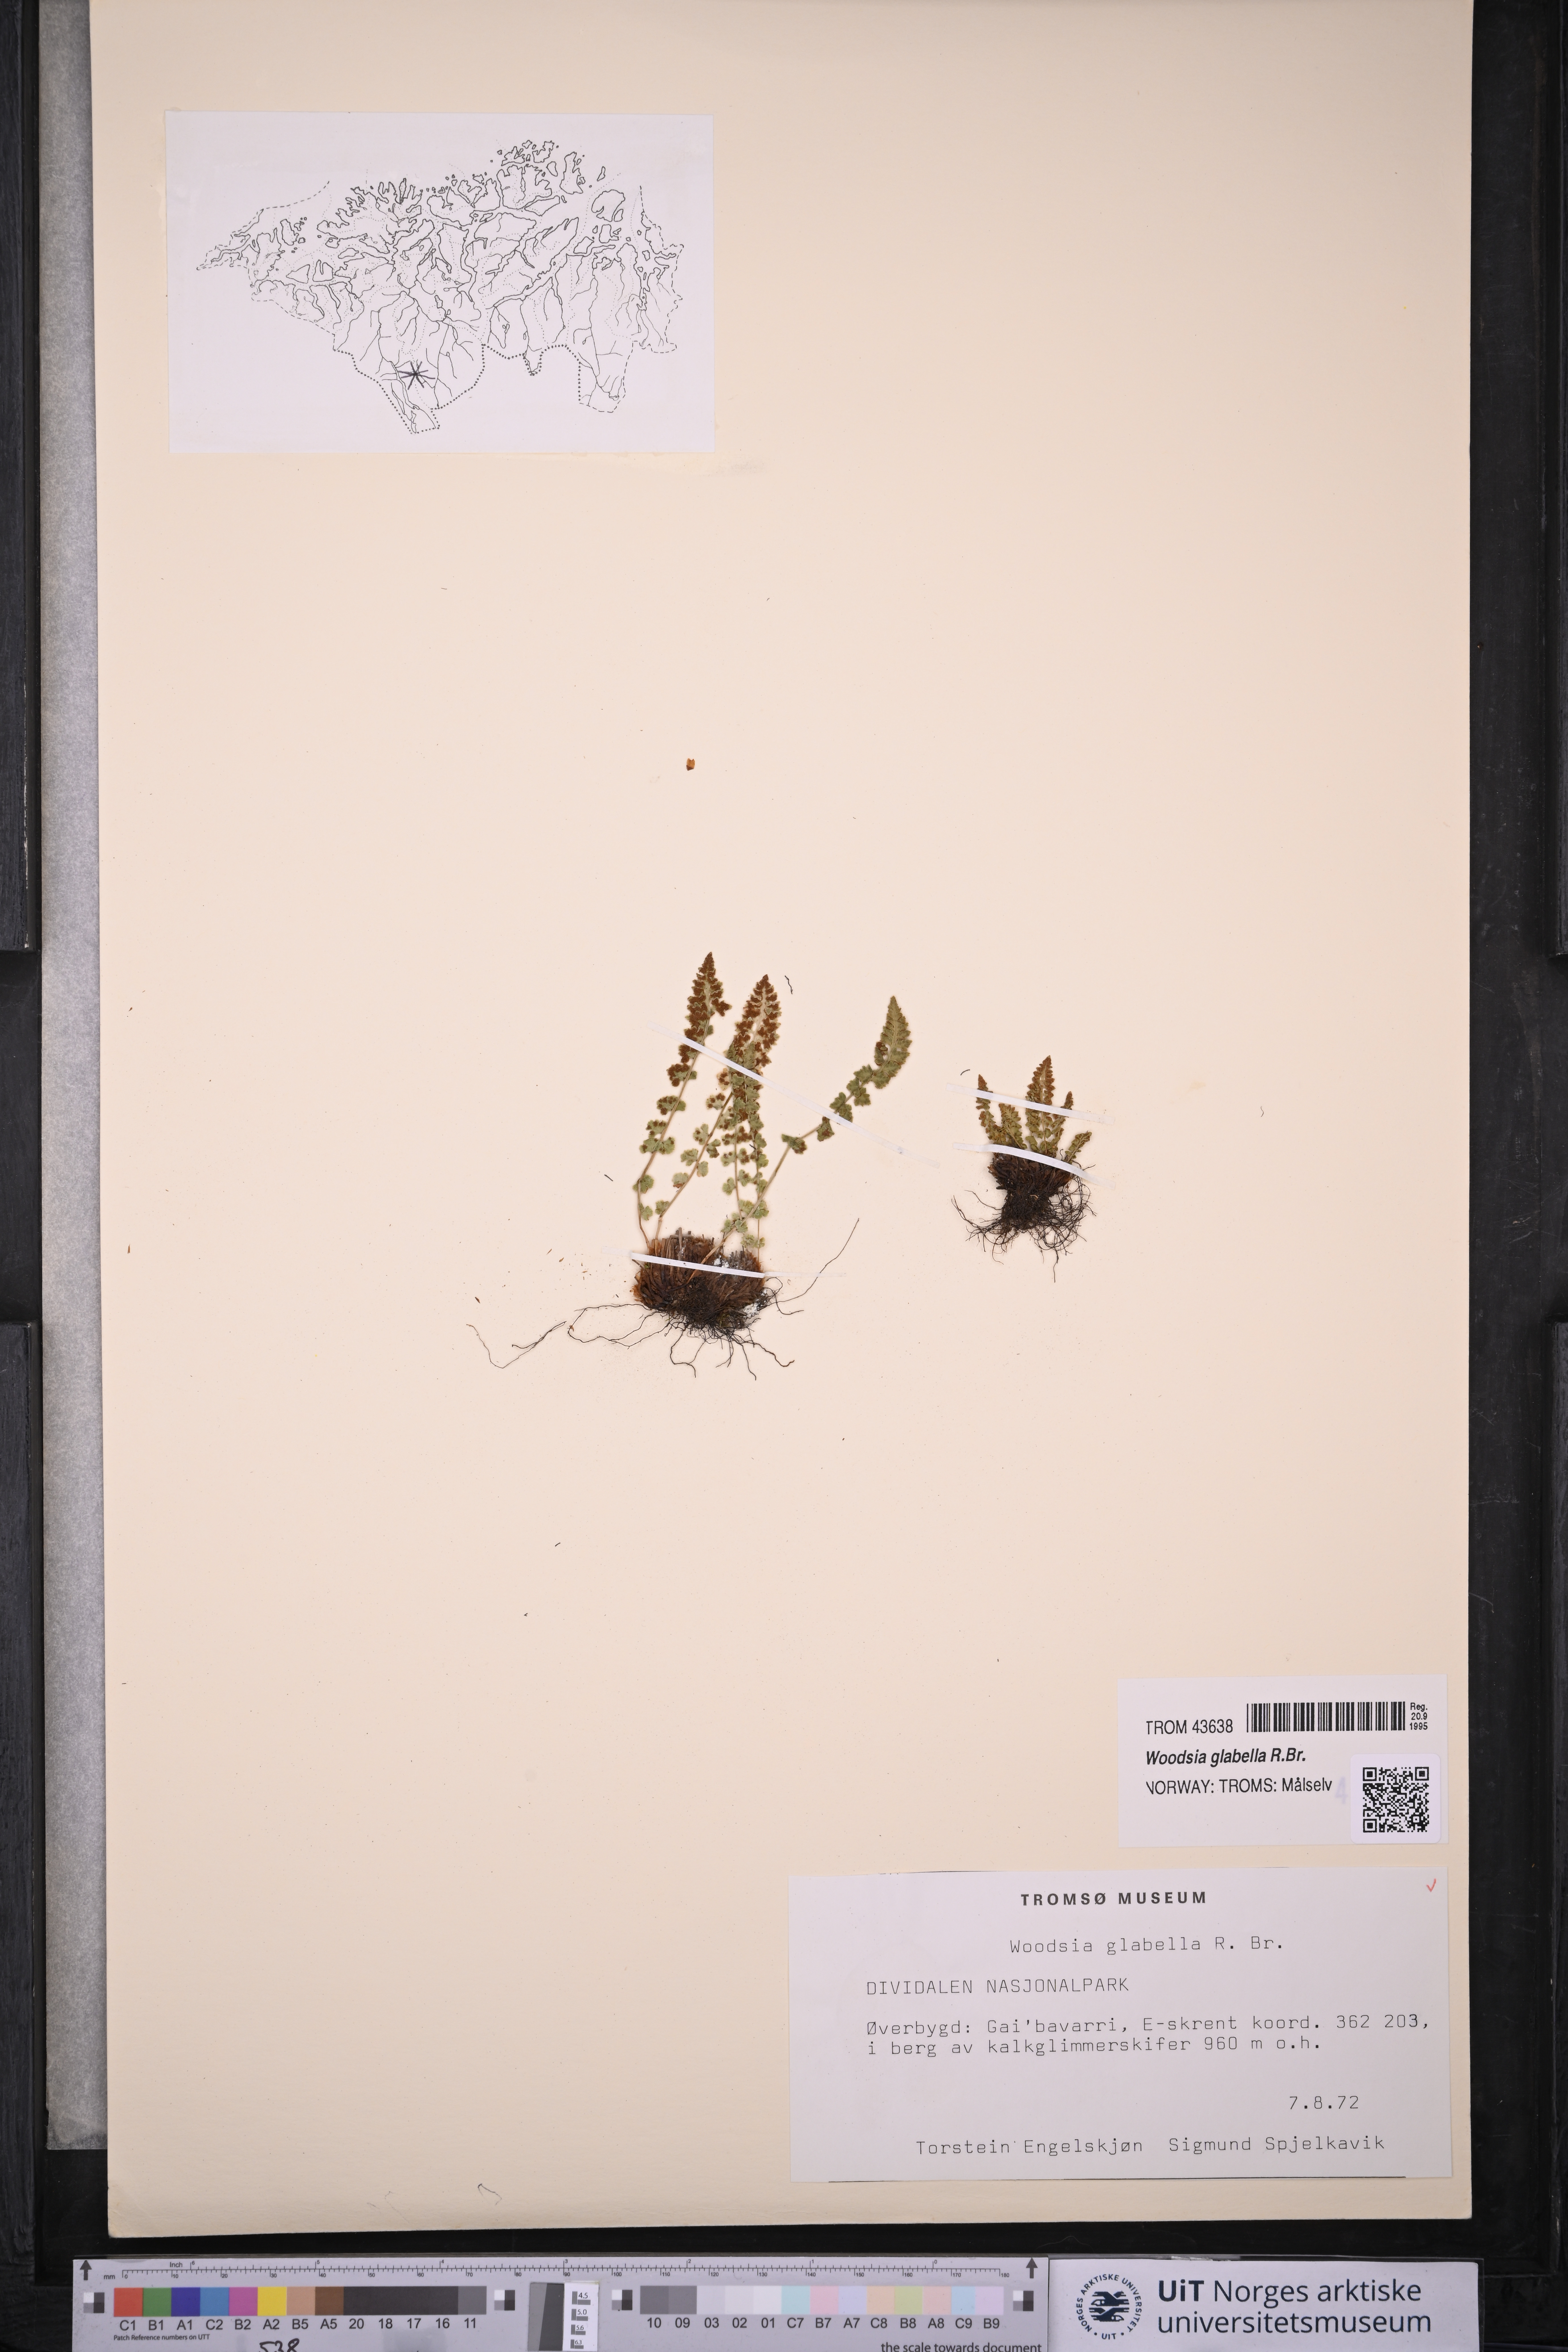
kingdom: Plantae
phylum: Tracheophyta
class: Polypodiopsida
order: Polypodiales
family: Woodsiaceae
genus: Woodsia
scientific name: Woodsia glabella
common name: Smooth woodsia
